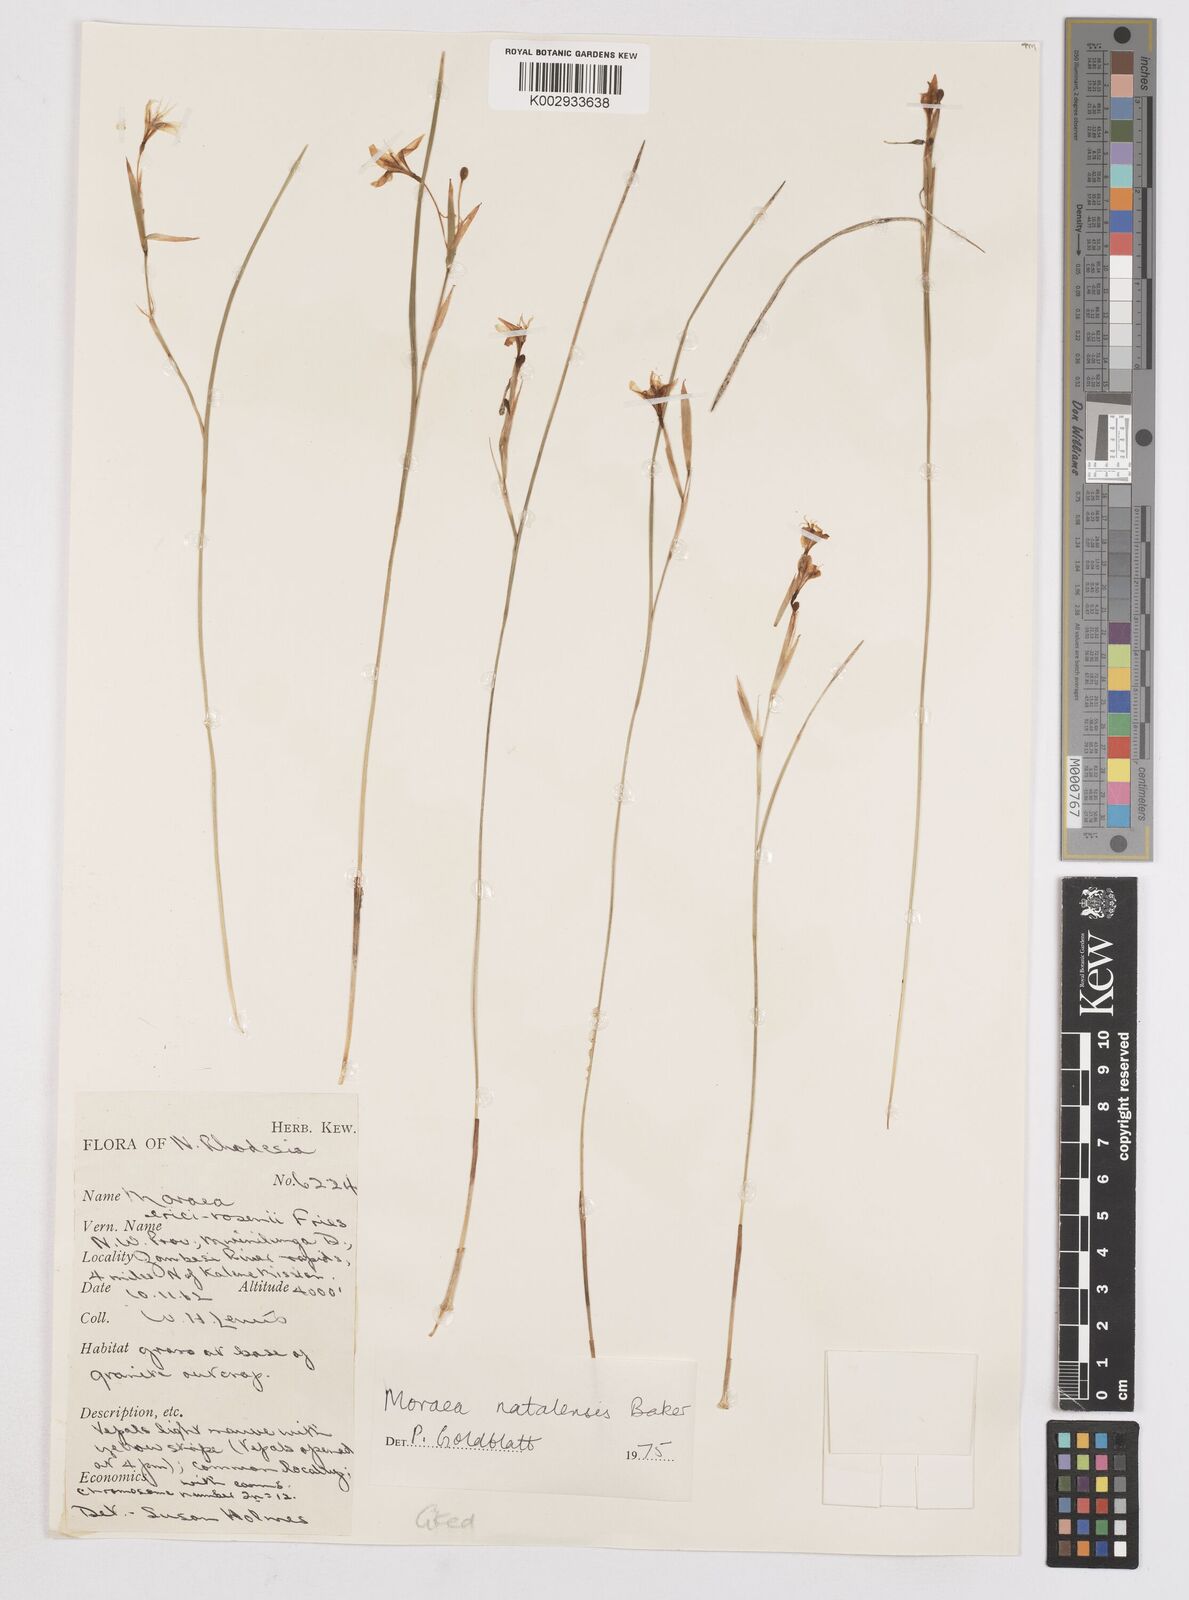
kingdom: Plantae
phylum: Tracheophyta
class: Liliopsida
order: Asparagales
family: Iridaceae
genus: Moraea
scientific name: Moraea natalensis
